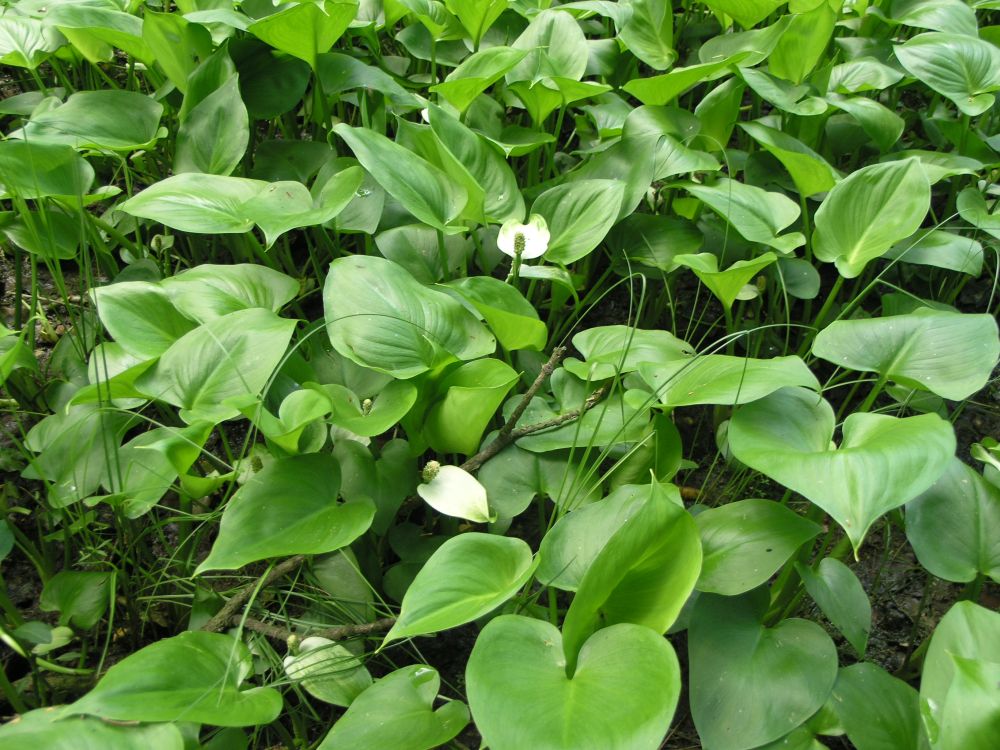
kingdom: Plantae
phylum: Tracheophyta
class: Liliopsida
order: Alismatales
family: Araceae
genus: Calla
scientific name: Calla palustris
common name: Bog arum
